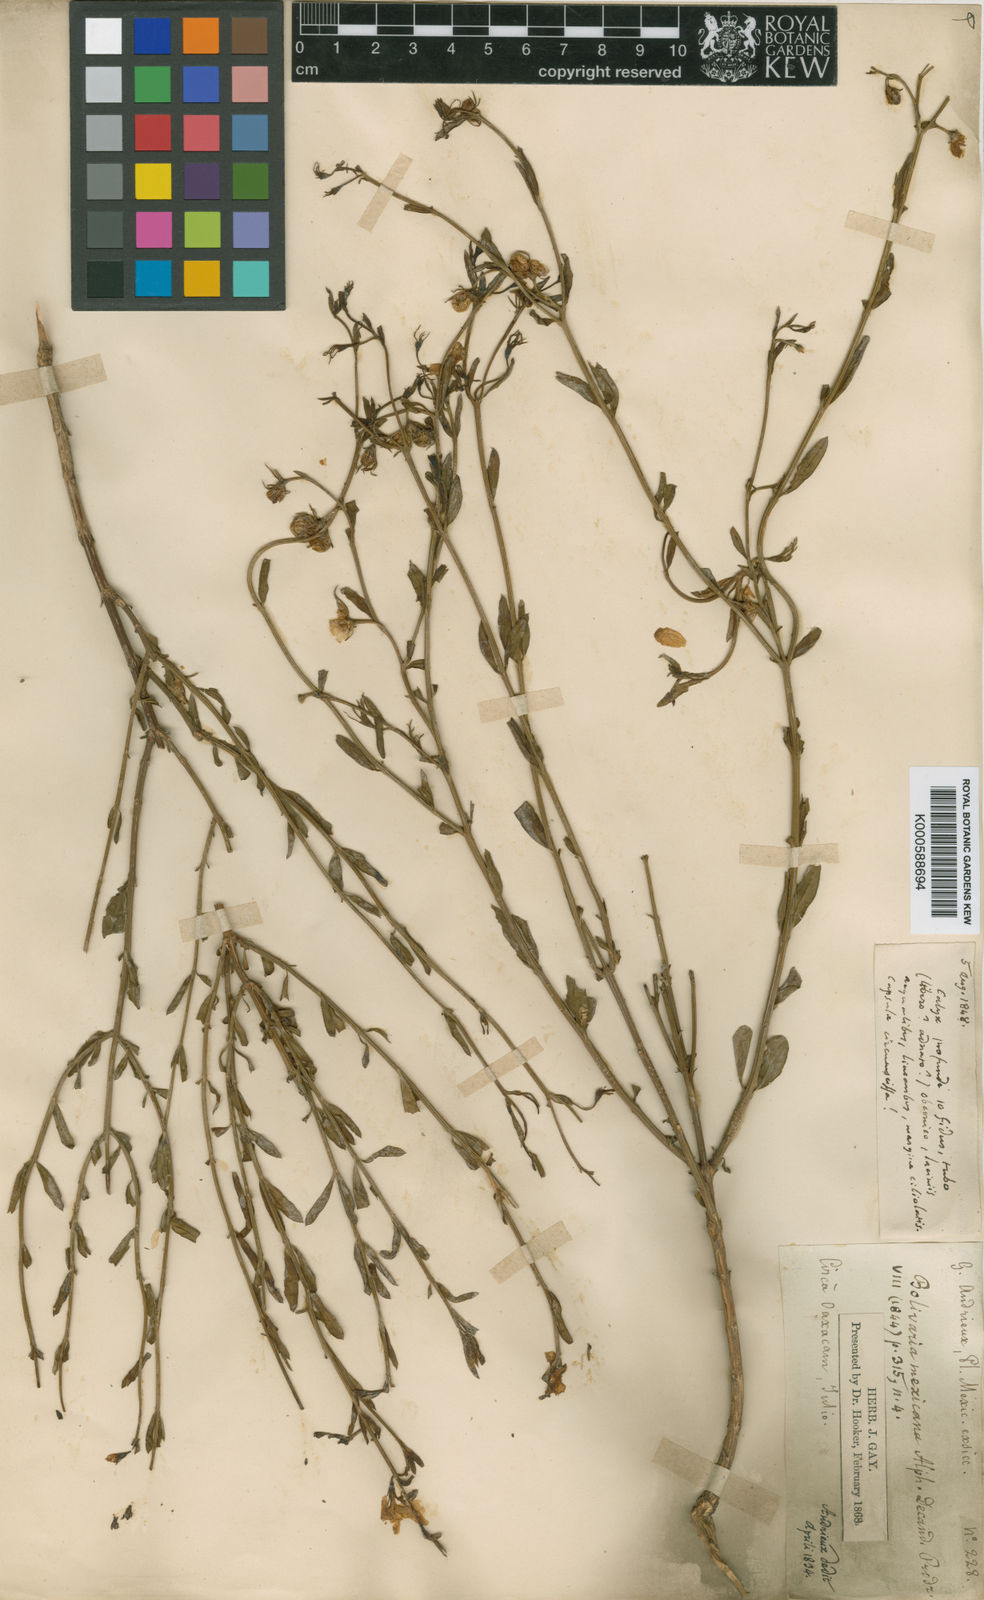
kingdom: Plantae
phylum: Tracheophyta
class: Magnoliopsida
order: Lamiales
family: Oleaceae
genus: Menodora
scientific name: Menodora mexicana
